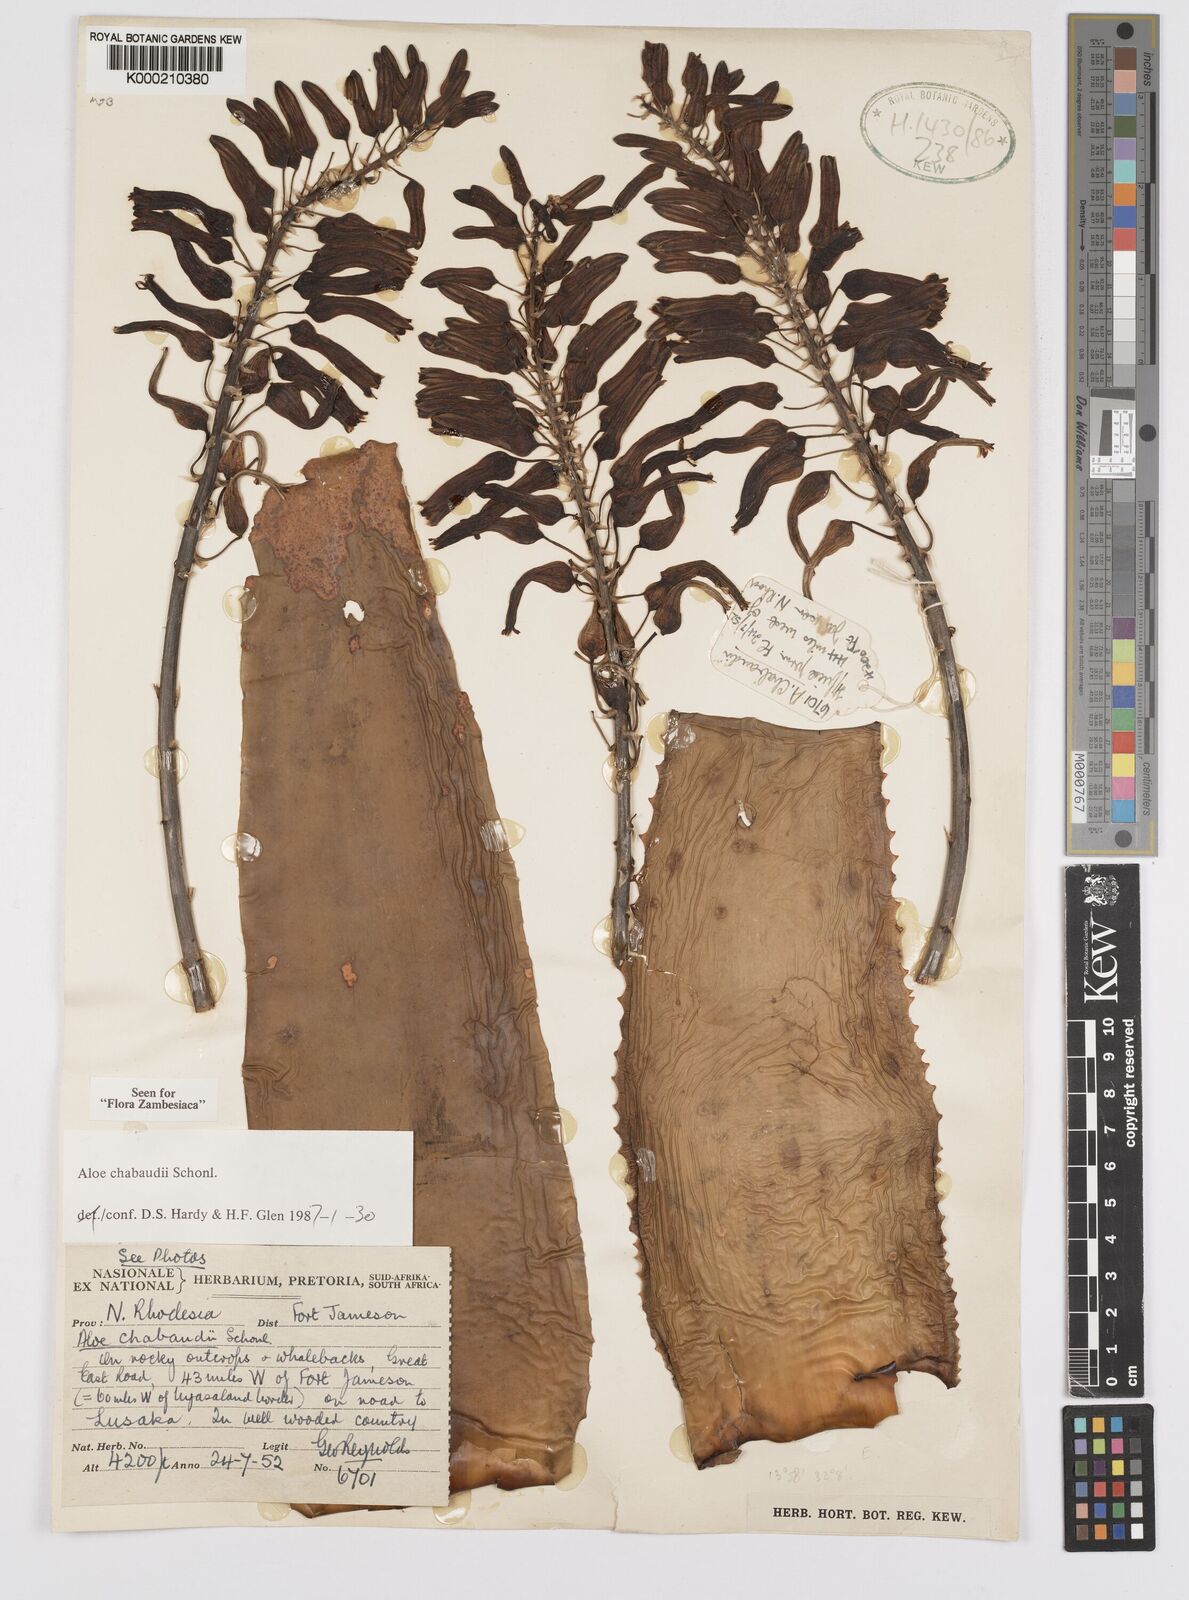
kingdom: Plantae
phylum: Tracheophyta
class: Liliopsida
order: Asparagales
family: Asphodelaceae
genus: Aloe
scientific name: Aloe chabaudii
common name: Chabaud's aloe
